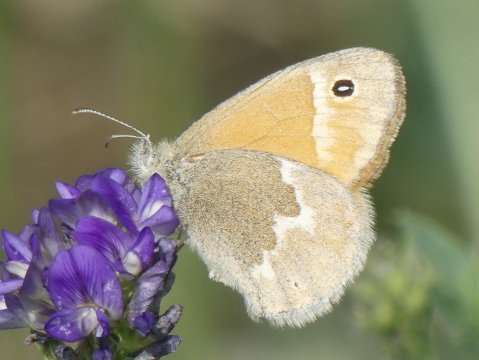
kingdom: Animalia
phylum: Arthropoda
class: Insecta
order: Lepidoptera
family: Nymphalidae
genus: Coenonympha
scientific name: Coenonympha tullia
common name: Large Heath
